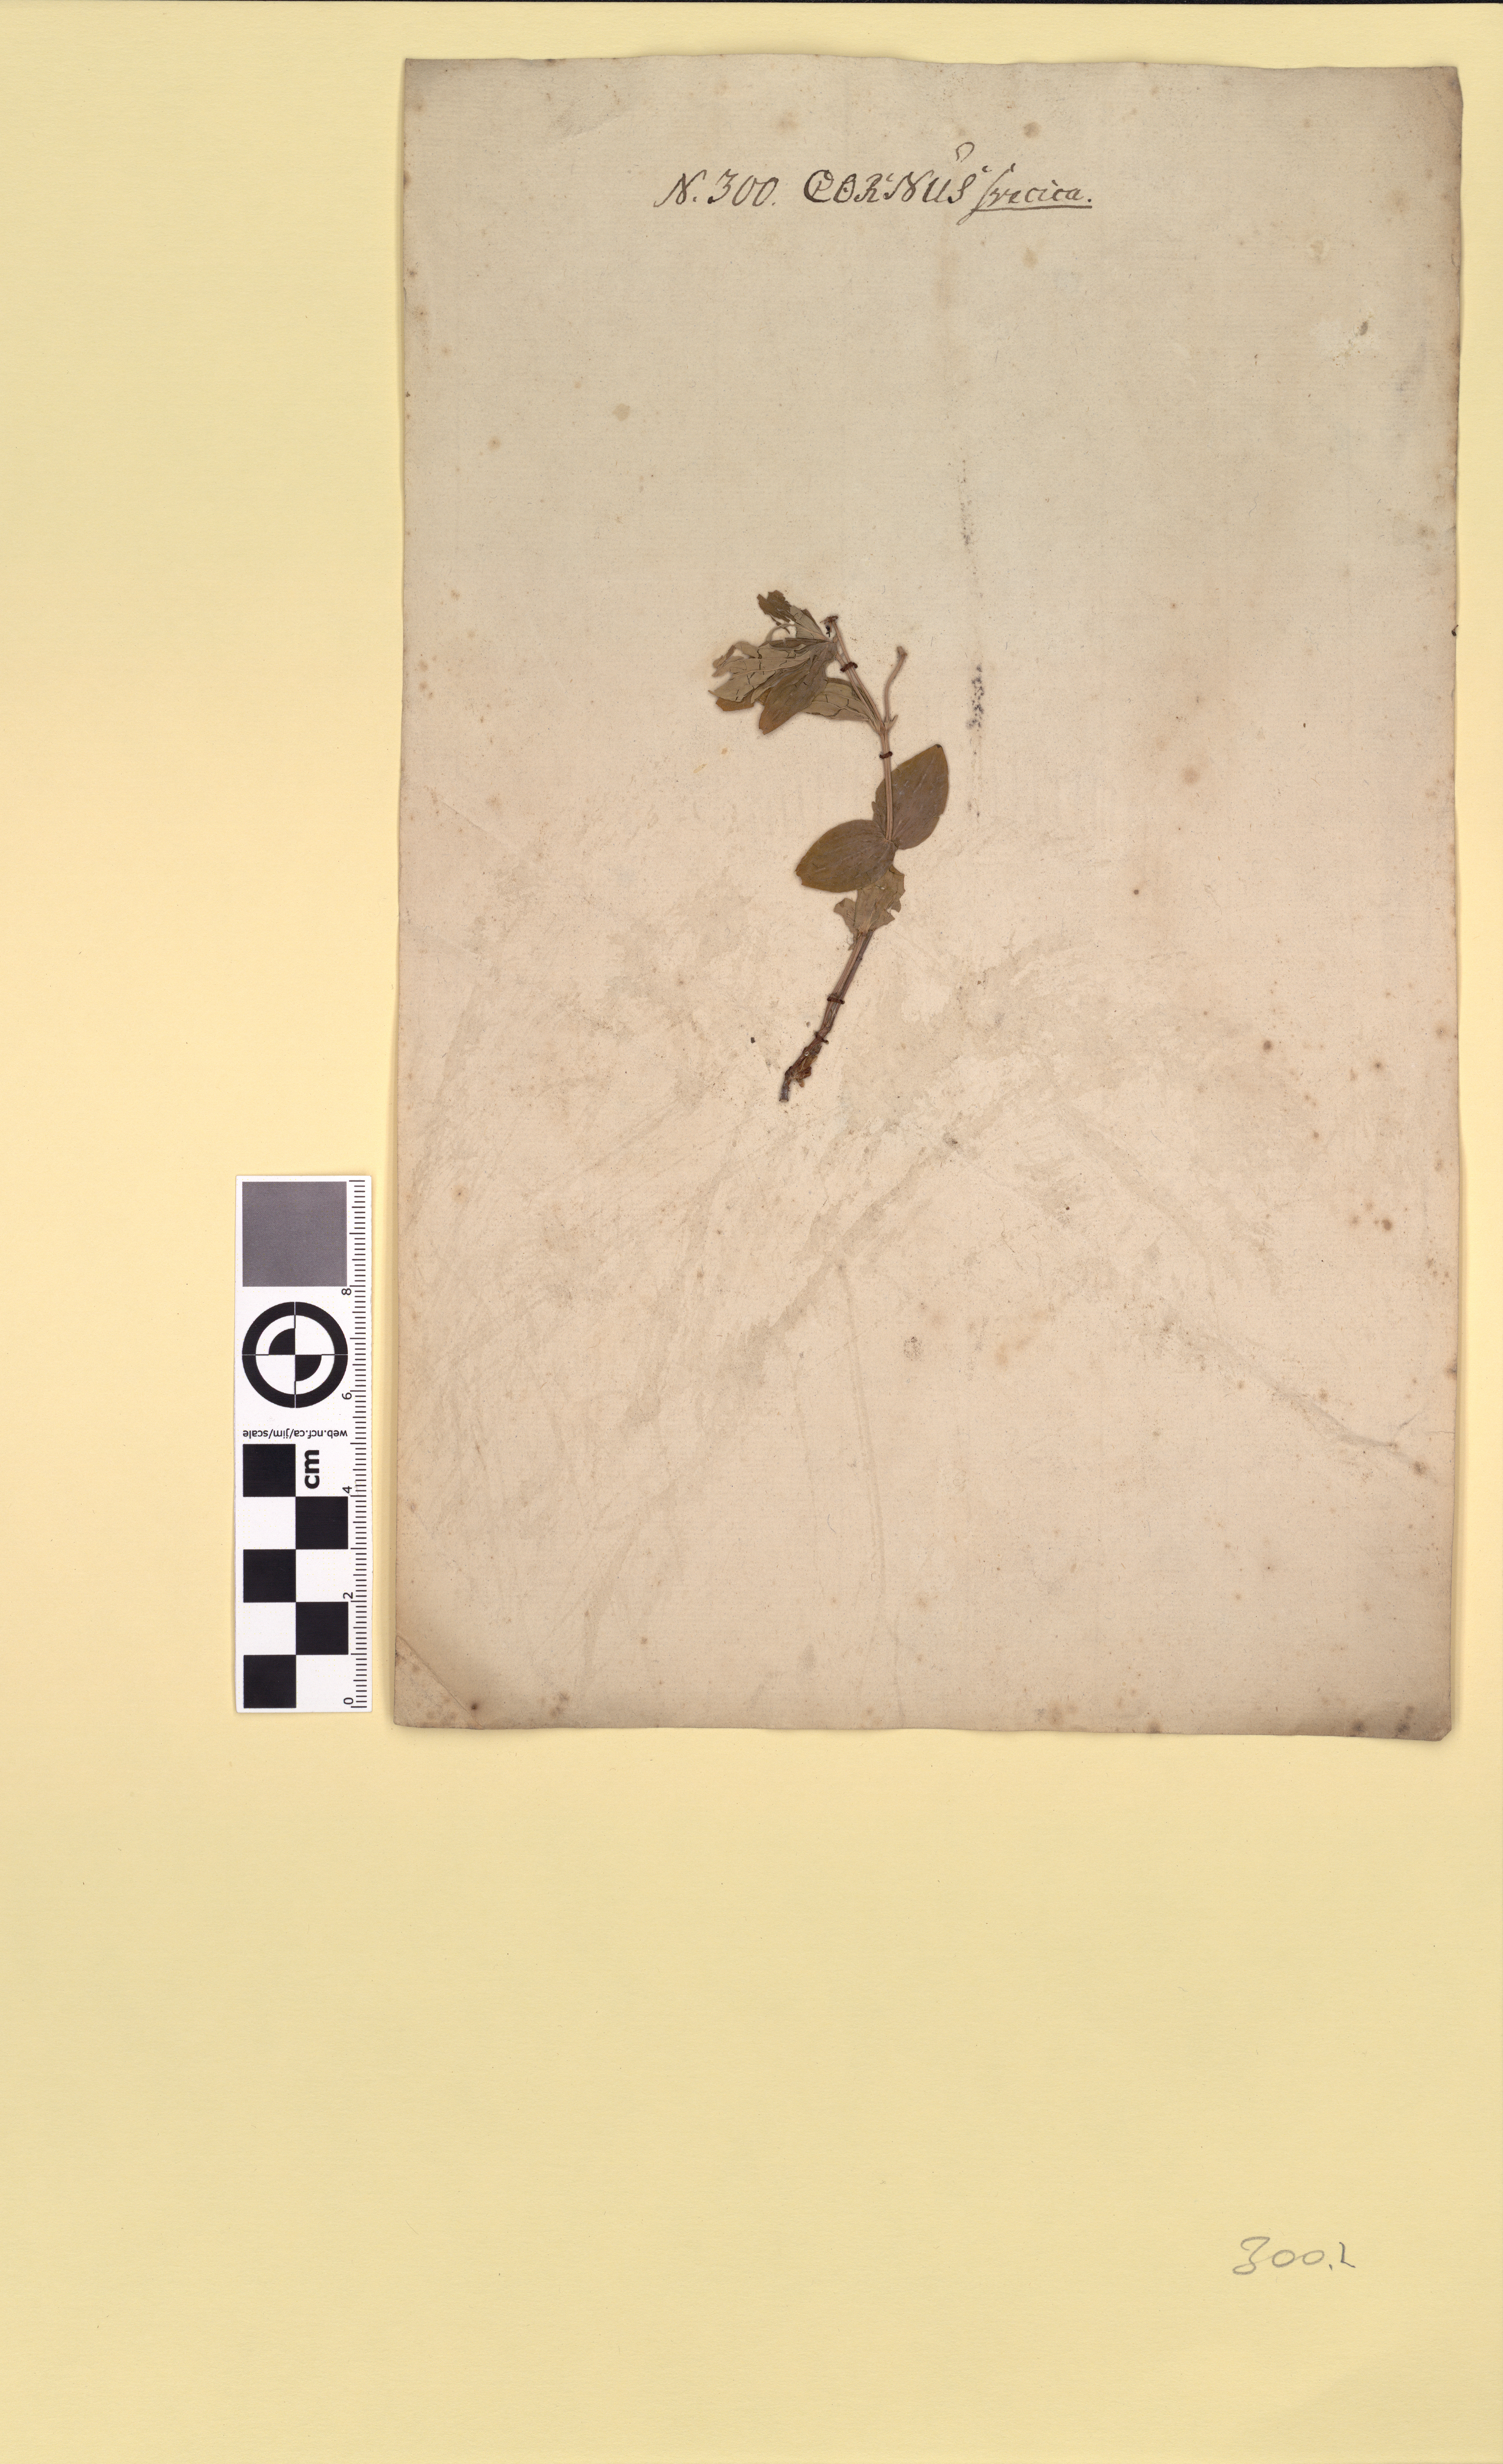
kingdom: Plantae
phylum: Tracheophyta
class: Magnoliopsida
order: Cornales
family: Cornaceae
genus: Cornus
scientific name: Cornus suecica
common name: Dwarf cornel
